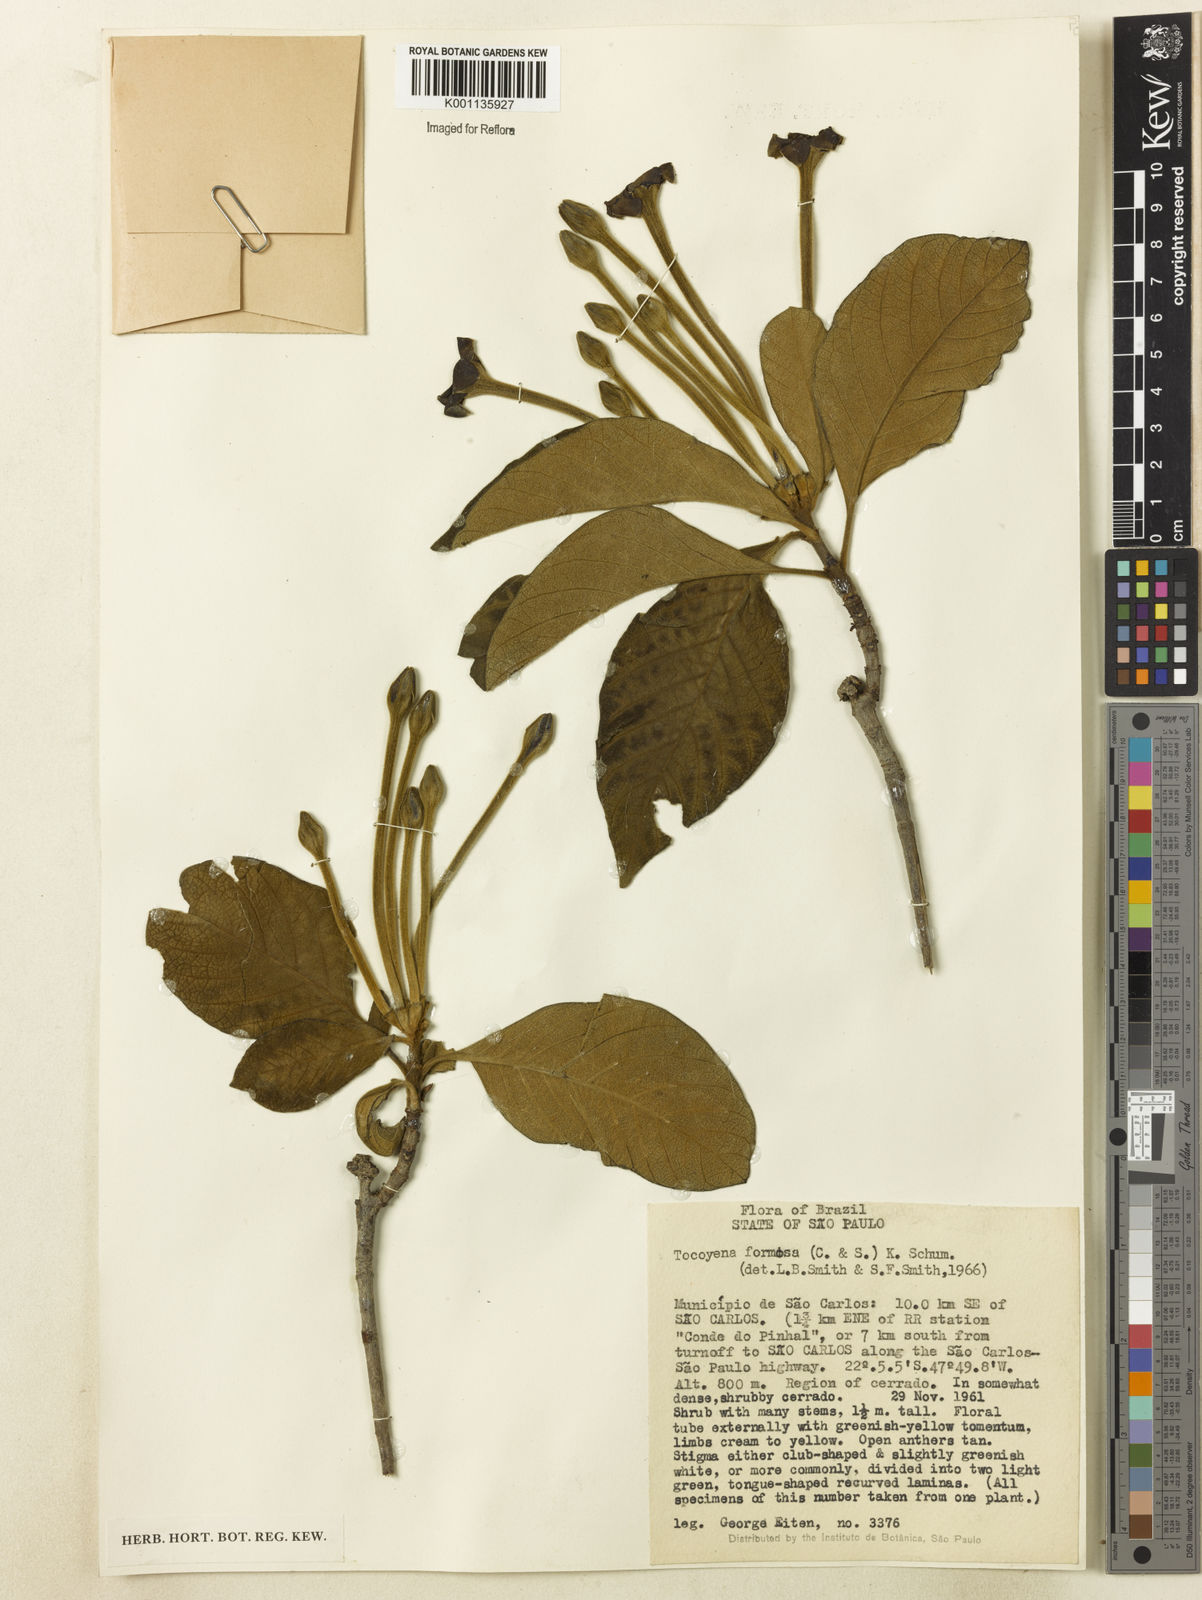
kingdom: Plantae
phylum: Tracheophyta
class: Magnoliopsida
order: Gentianales
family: Rubiaceae
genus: Tocoyena
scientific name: Tocoyena formosa
